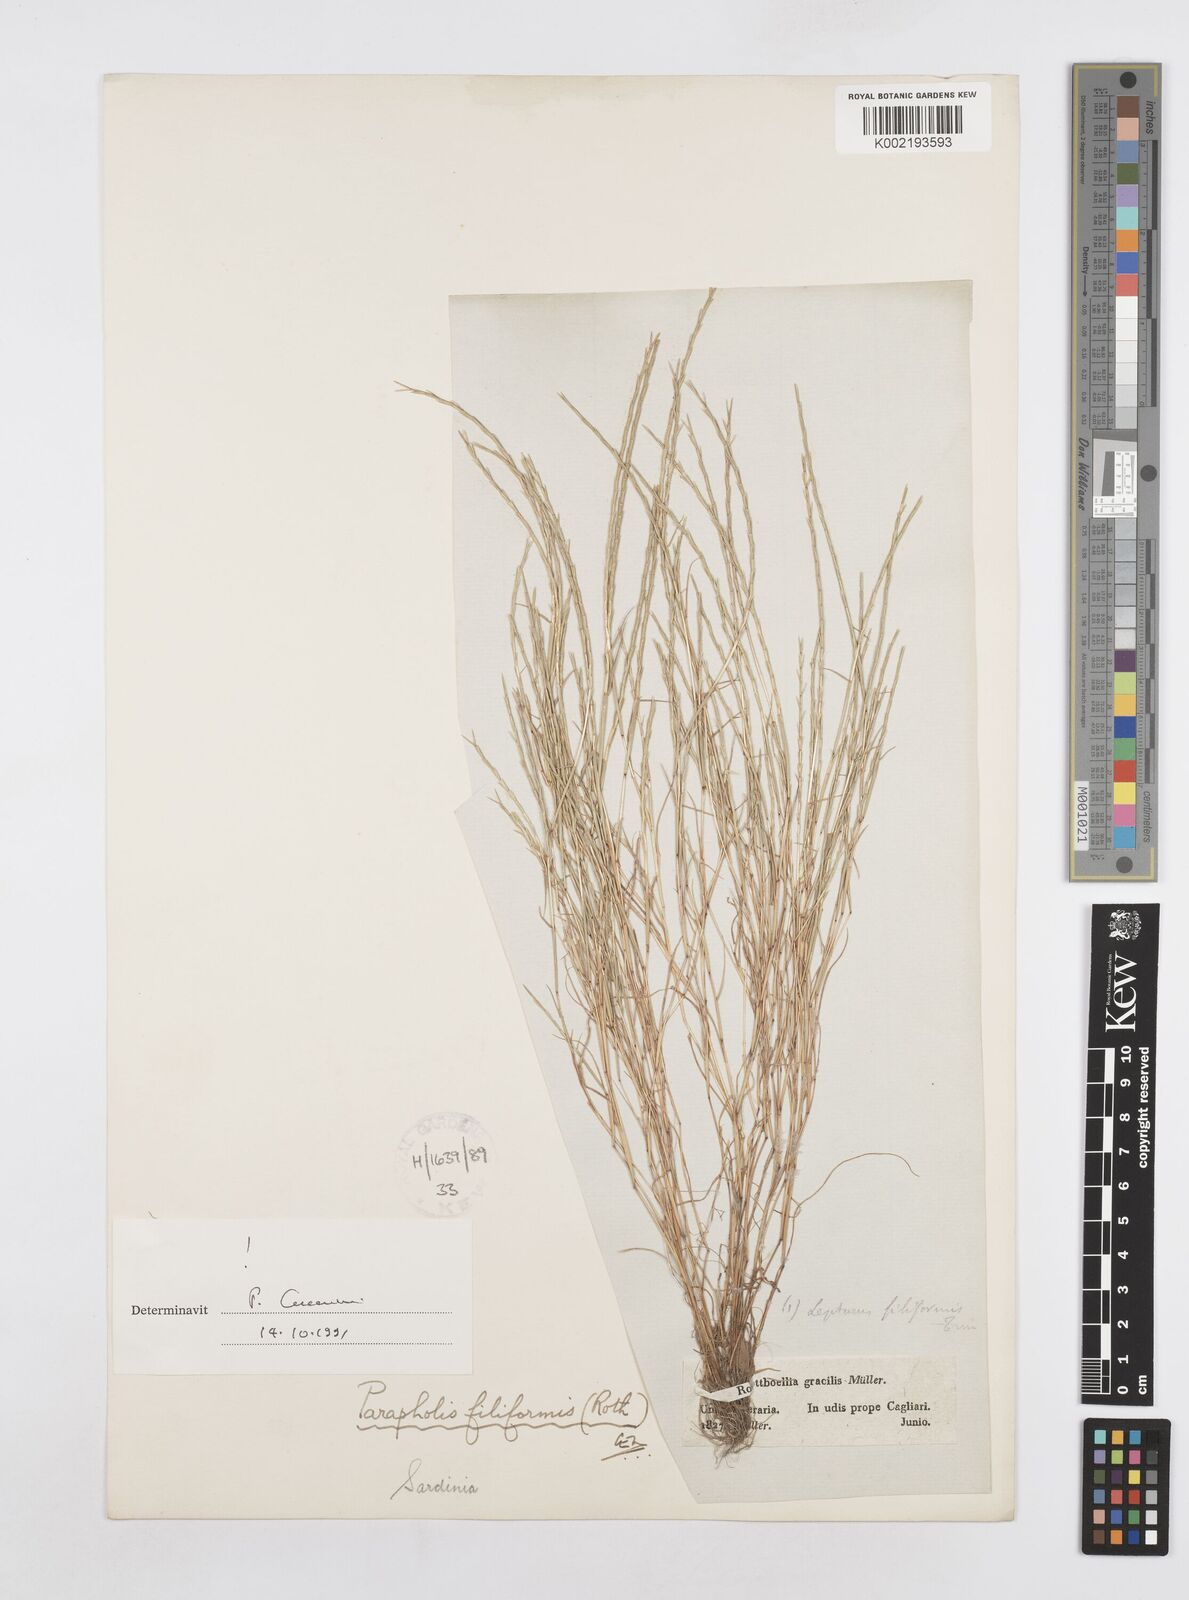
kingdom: Plantae
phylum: Tracheophyta
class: Liliopsida
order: Poales
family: Poaceae
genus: Parapholis
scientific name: Parapholis filiformis
